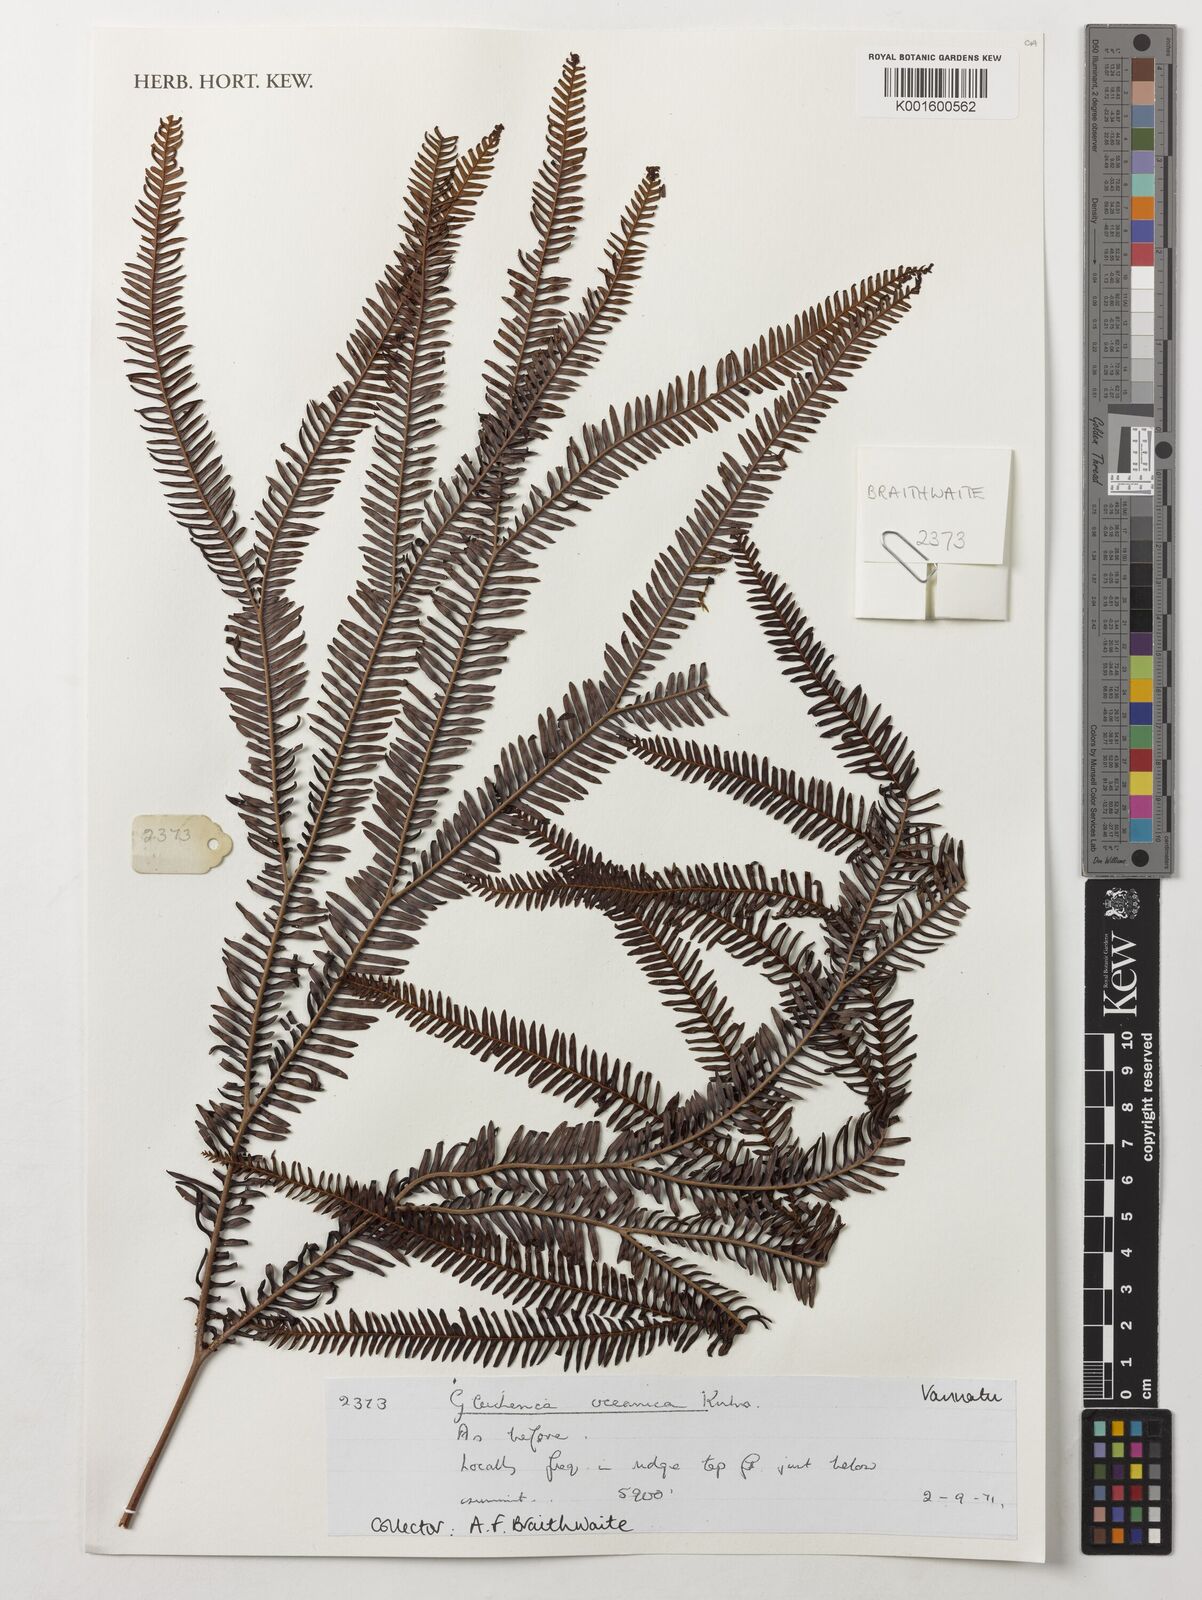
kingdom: Plantae
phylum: Tracheophyta
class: Polypodiopsida
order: Gleicheniales
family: Gleicheniaceae
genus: Sticherus
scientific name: Sticherus oceanicus
